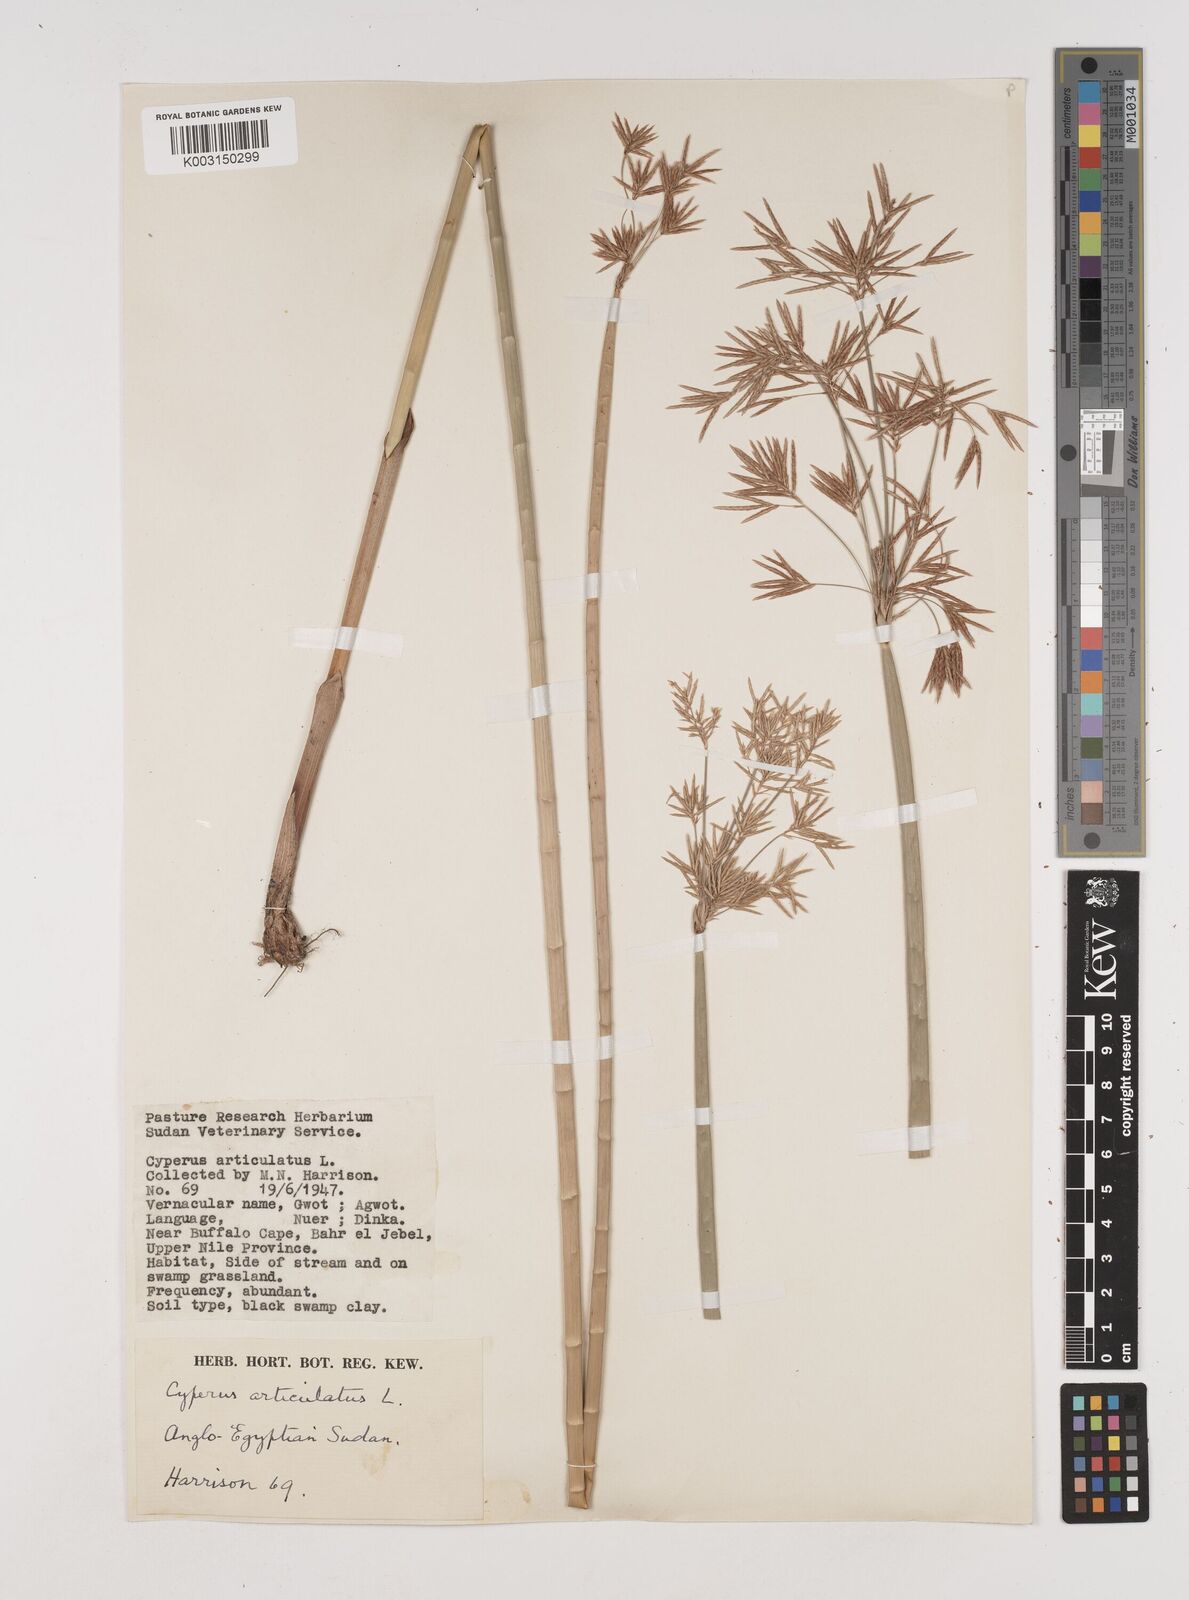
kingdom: Plantae
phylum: Tracheophyta
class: Liliopsida
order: Poales
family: Cyperaceae
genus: Cyperus
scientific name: Cyperus articulatus
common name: Jointed flatsedge
